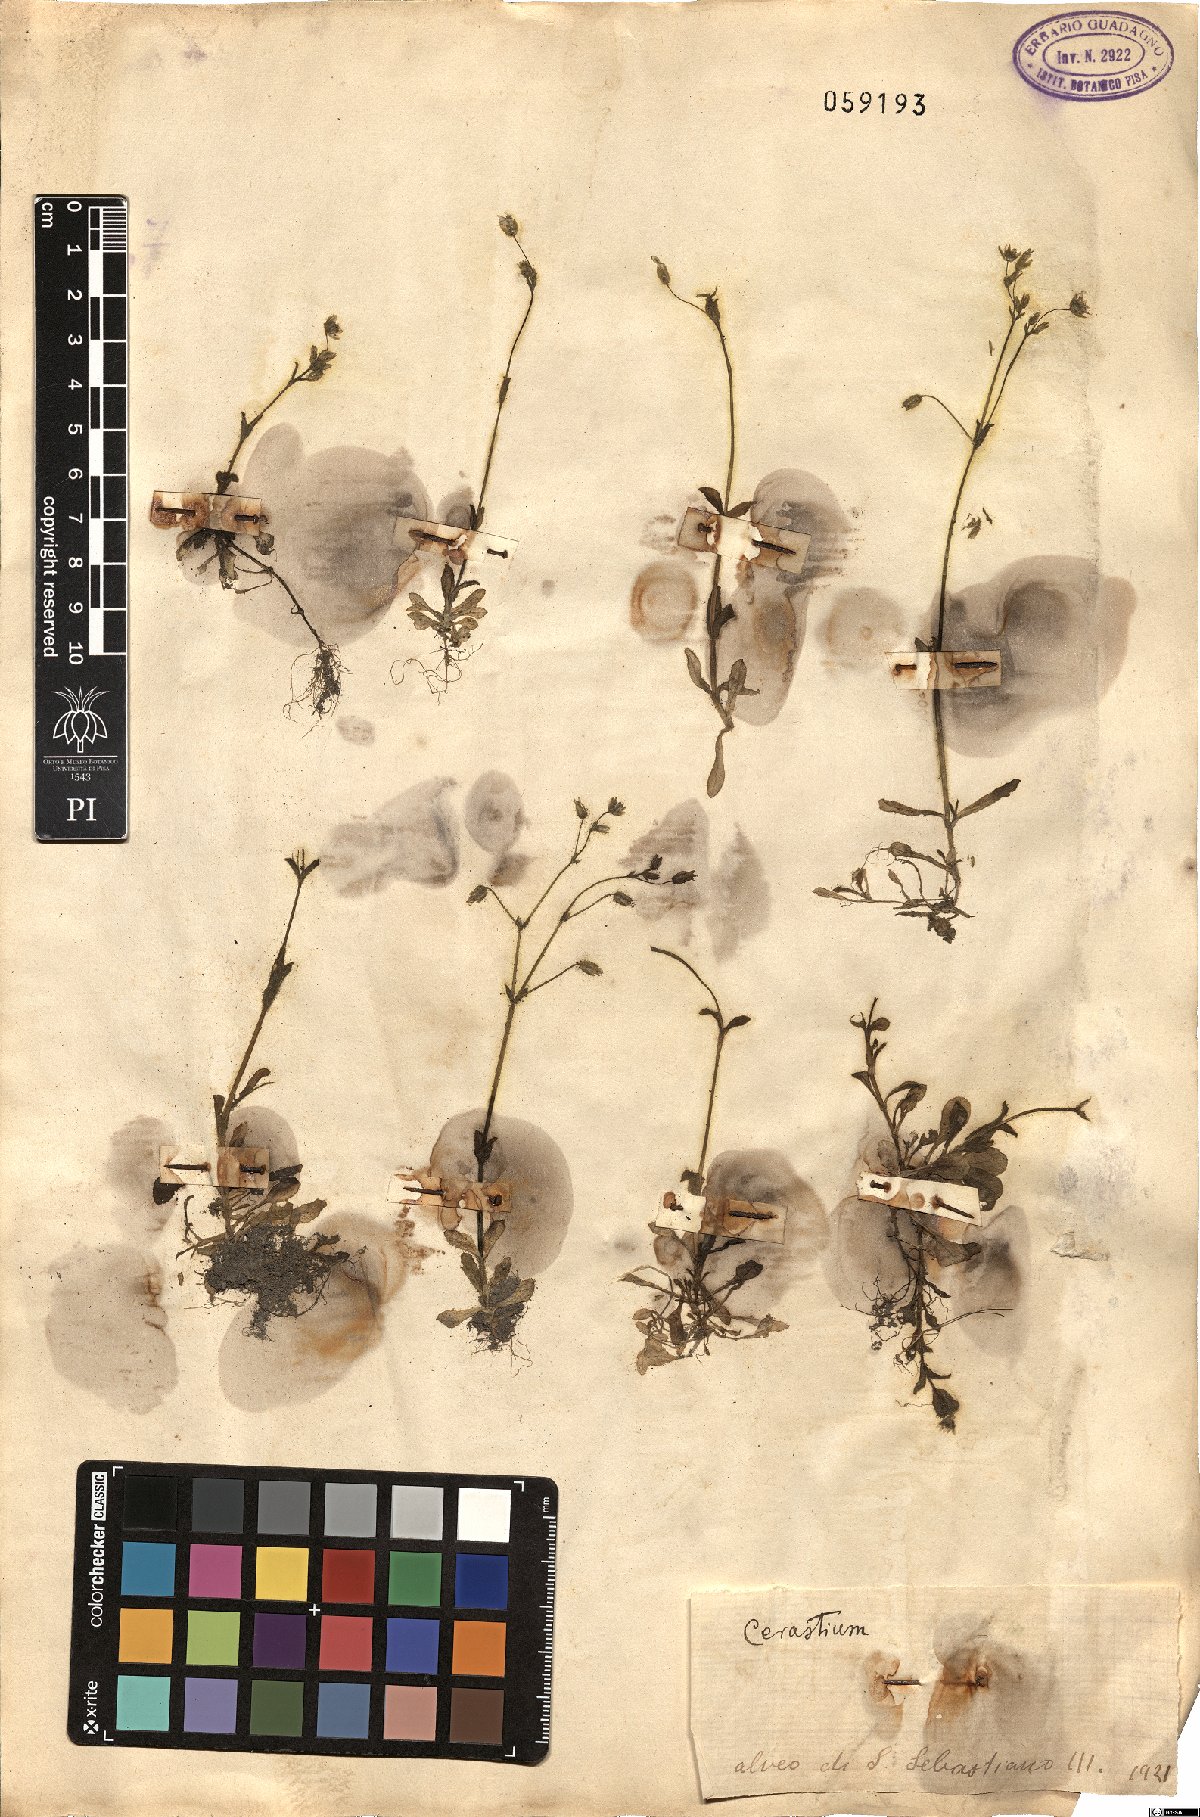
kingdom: Plantae
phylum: Tracheophyta
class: Magnoliopsida
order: Caryophyllales
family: Caryophyllaceae
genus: Cerastium
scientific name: Cerastium
